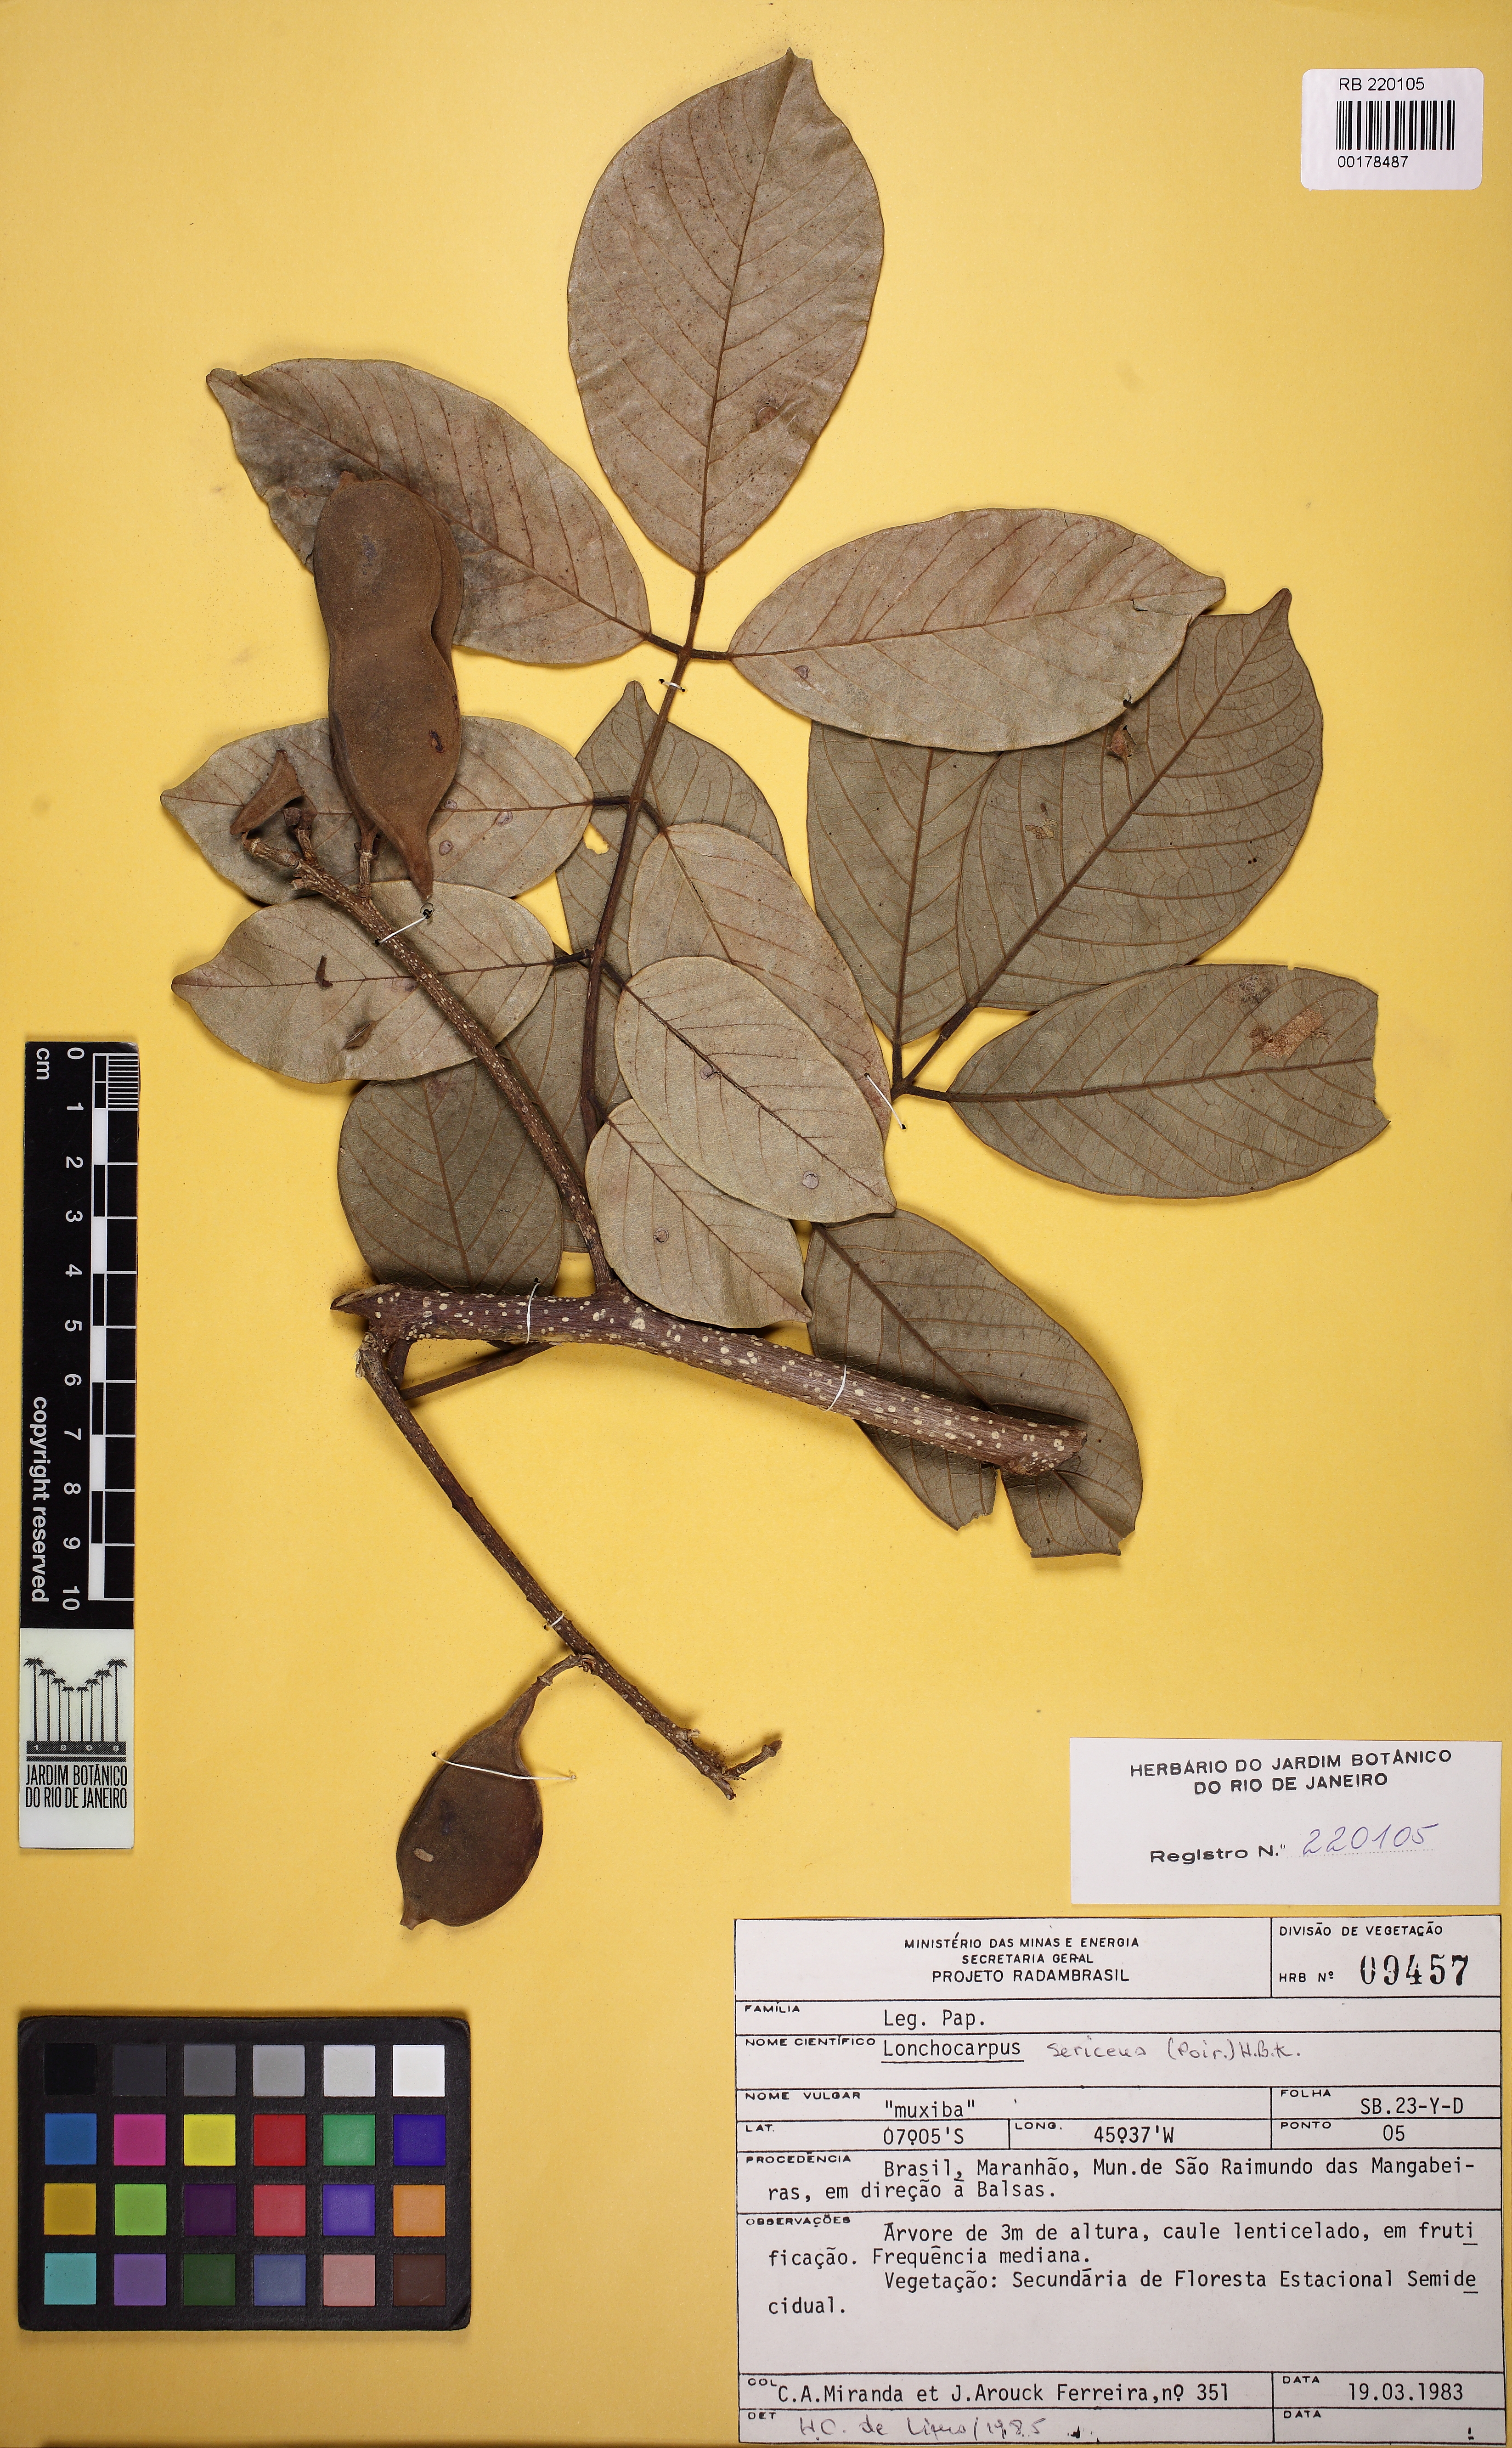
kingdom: Plantae
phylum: Tracheophyta
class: Magnoliopsida
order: Fabales
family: Fabaceae
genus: Lonchocarpus
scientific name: Lonchocarpus sericeus
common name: Savonette
